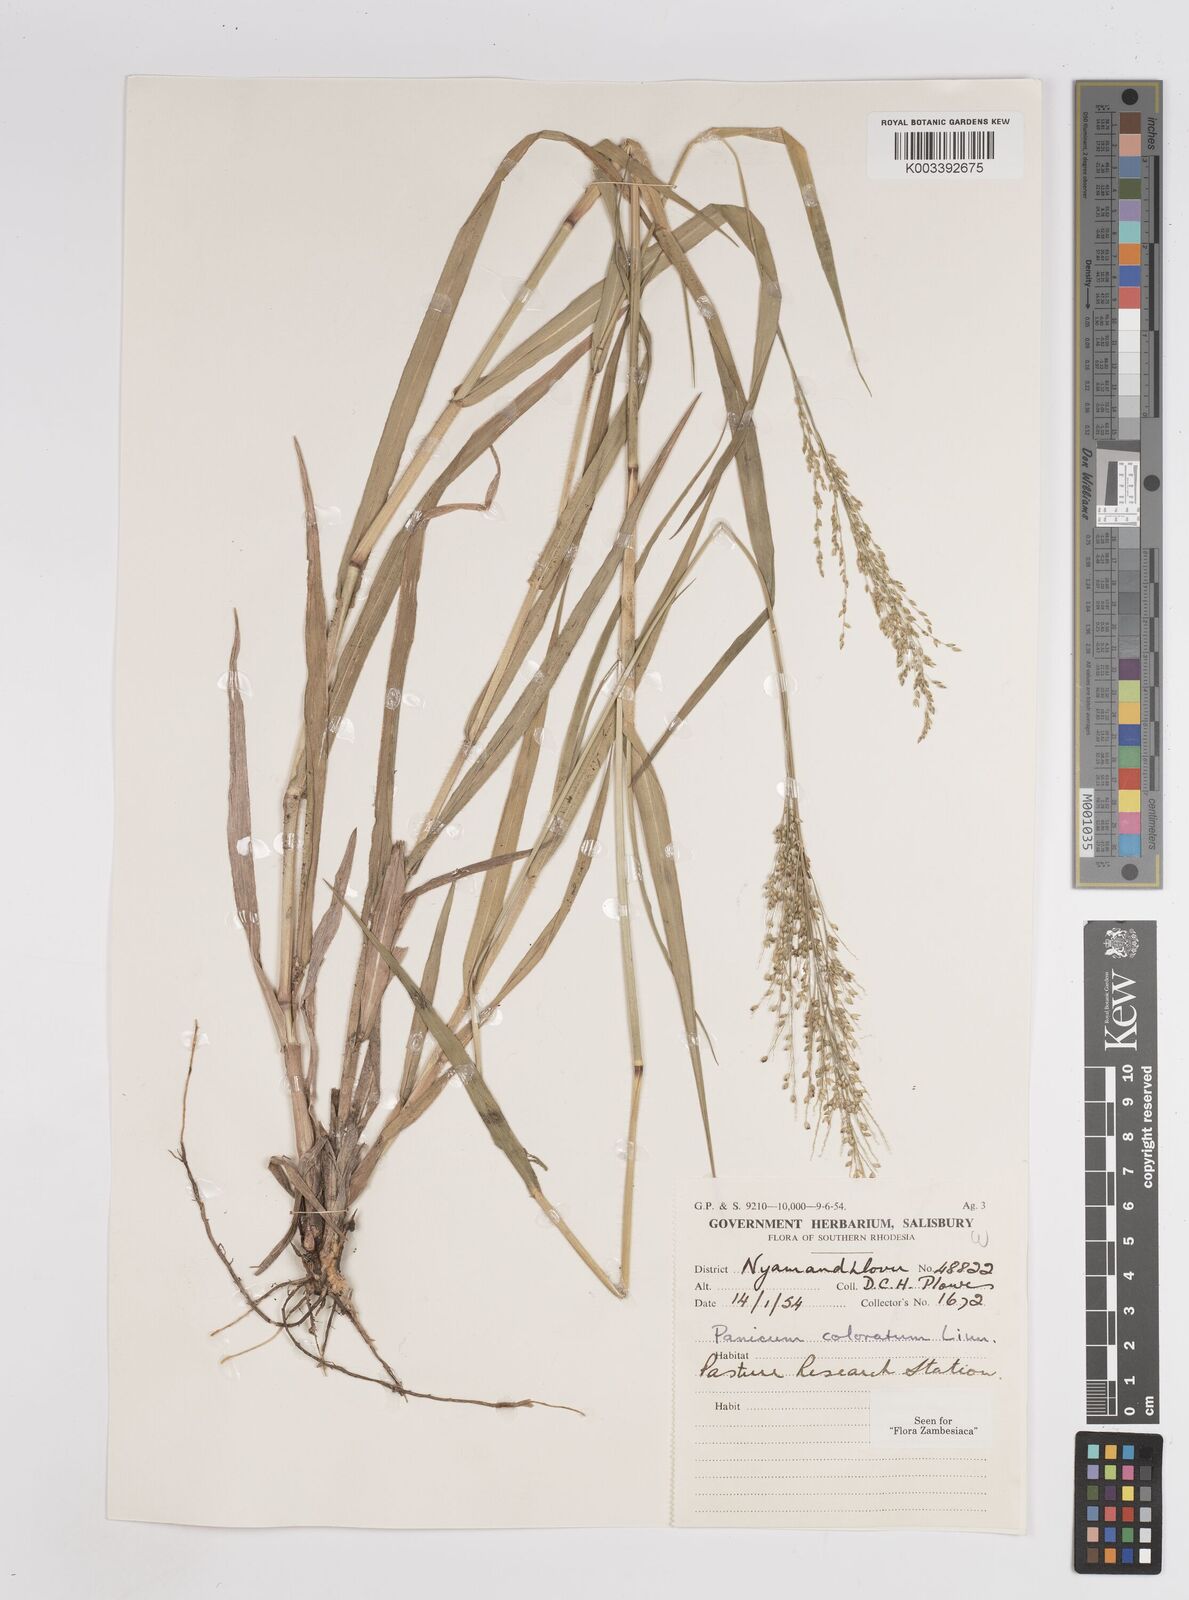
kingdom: Plantae
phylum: Tracheophyta
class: Liliopsida
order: Poales
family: Poaceae
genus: Panicum
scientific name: Panicum
